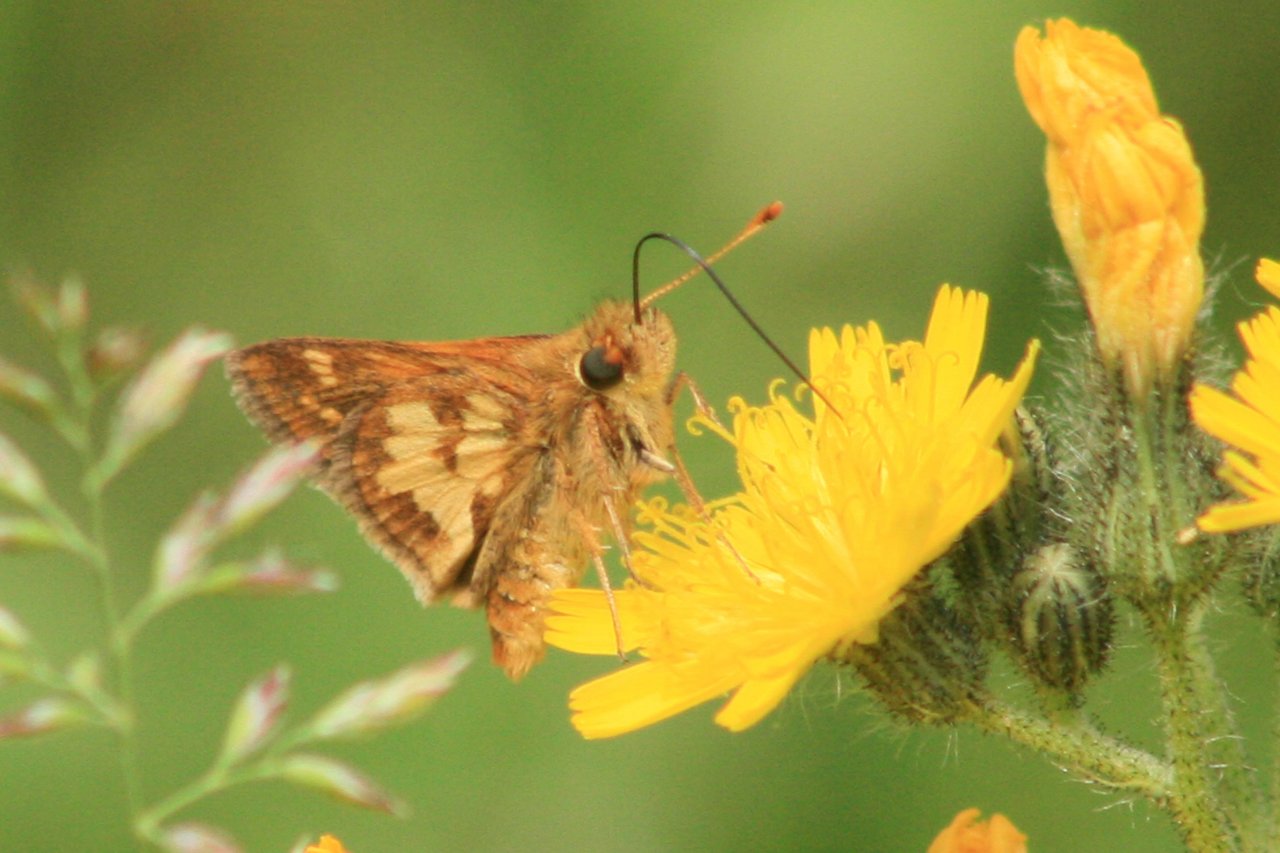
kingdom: Animalia
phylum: Arthropoda
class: Insecta
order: Lepidoptera
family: Hesperiidae
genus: Polites
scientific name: Polites coras
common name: Peck's Skipper
